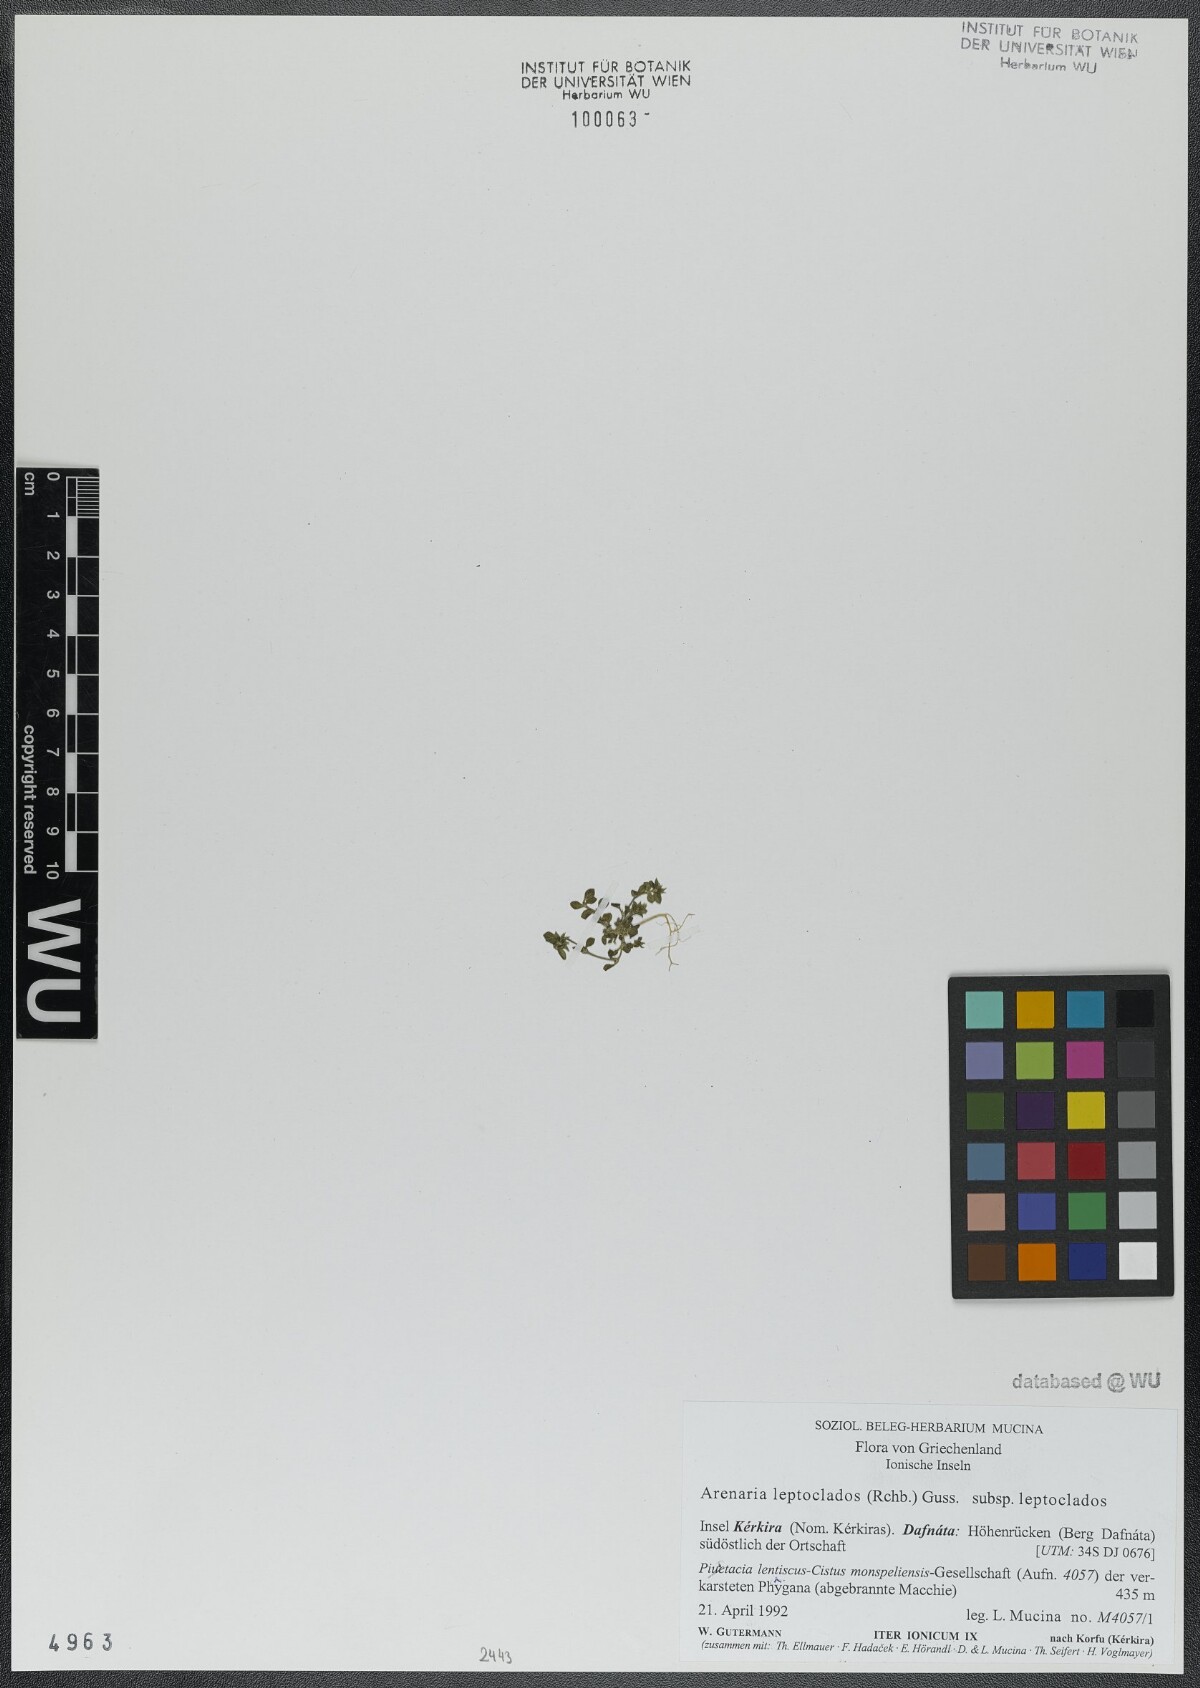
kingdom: Plantae
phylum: Tracheophyta
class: Magnoliopsida
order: Caryophyllales
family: Caryophyllaceae
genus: Arenaria
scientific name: Arenaria leptoclados
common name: Thyme-leaved sandwort
